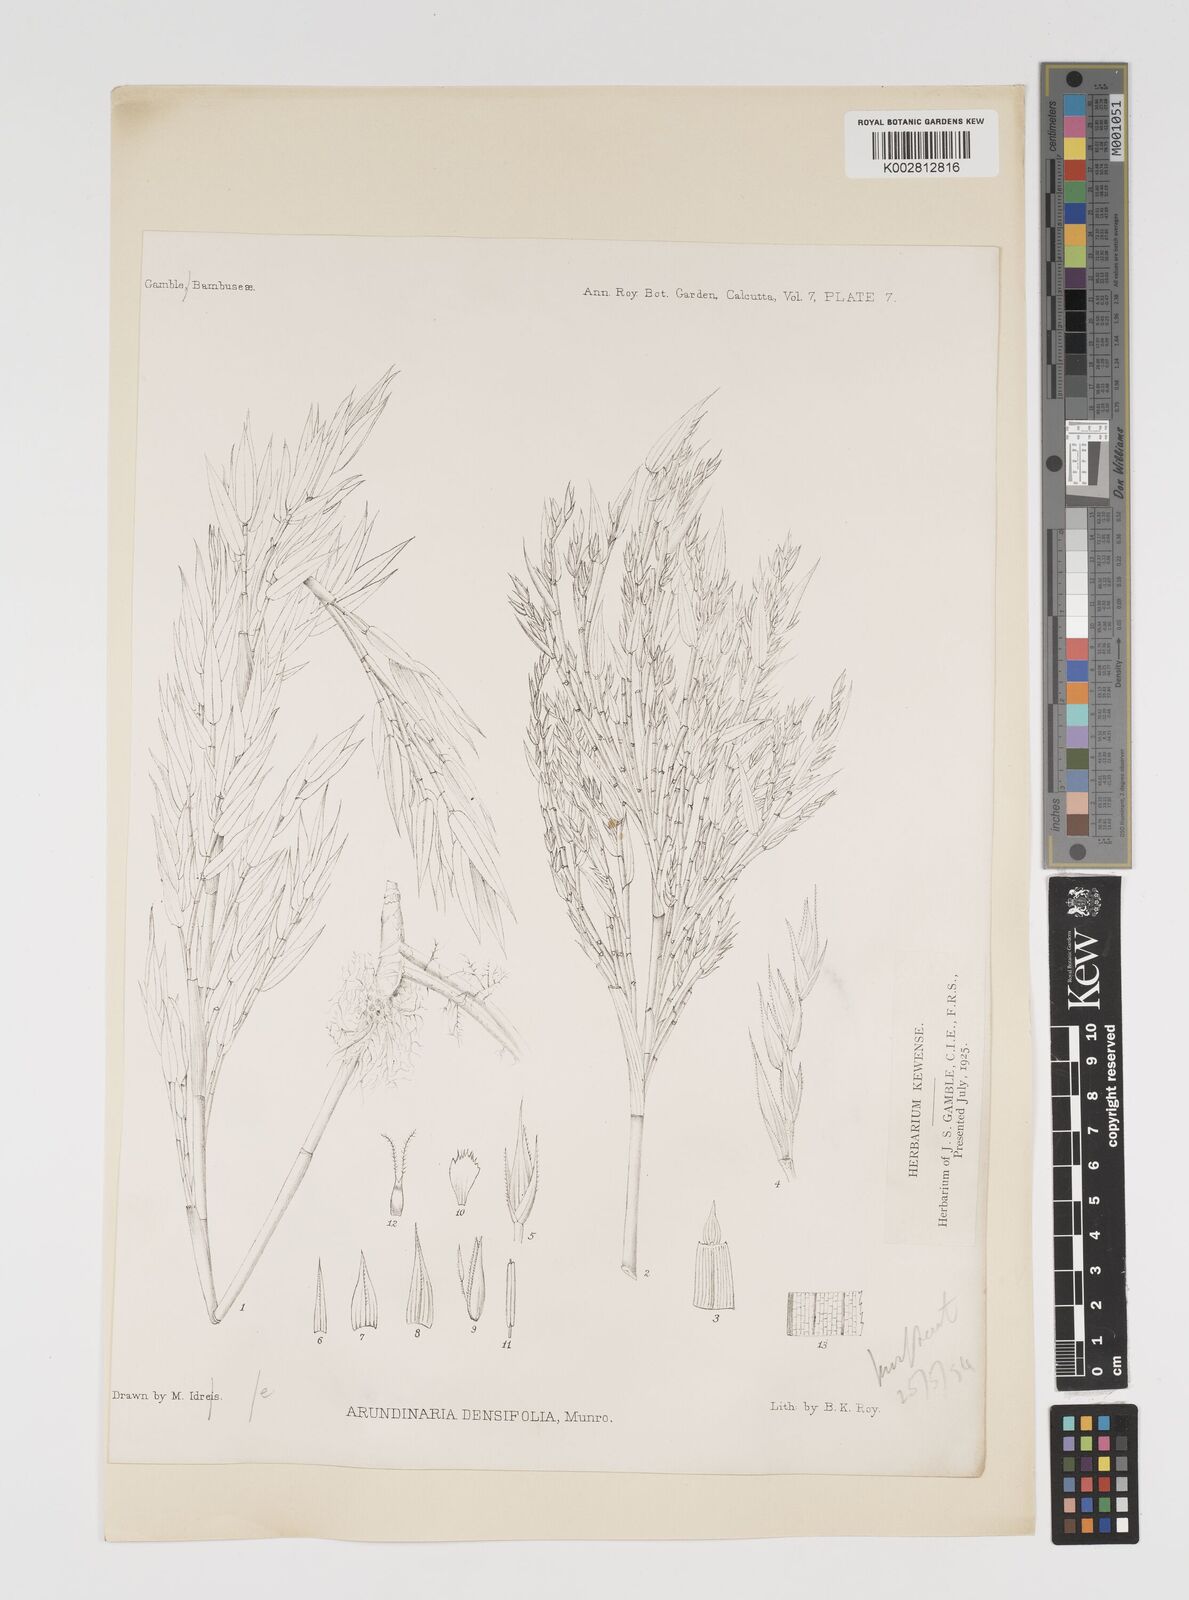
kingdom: Plantae
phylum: Tracheophyta
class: Liliopsida
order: Poales
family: Poaceae
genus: Kuruna
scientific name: Kuruna densifolia
